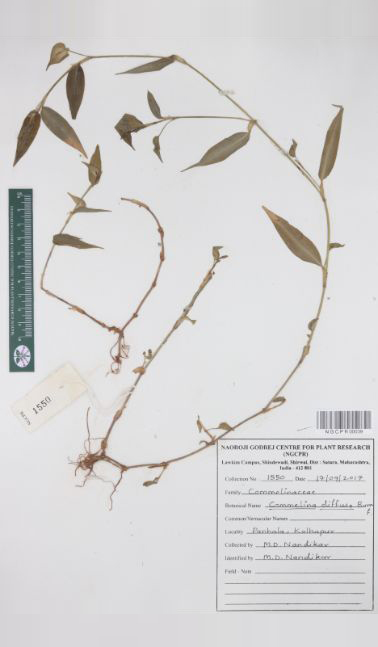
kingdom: Plantae
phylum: Tracheophyta
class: Liliopsida
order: Commelinales
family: Commelinaceae
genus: Commelina
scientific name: Commelina diffusa
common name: Climbing dayflower
